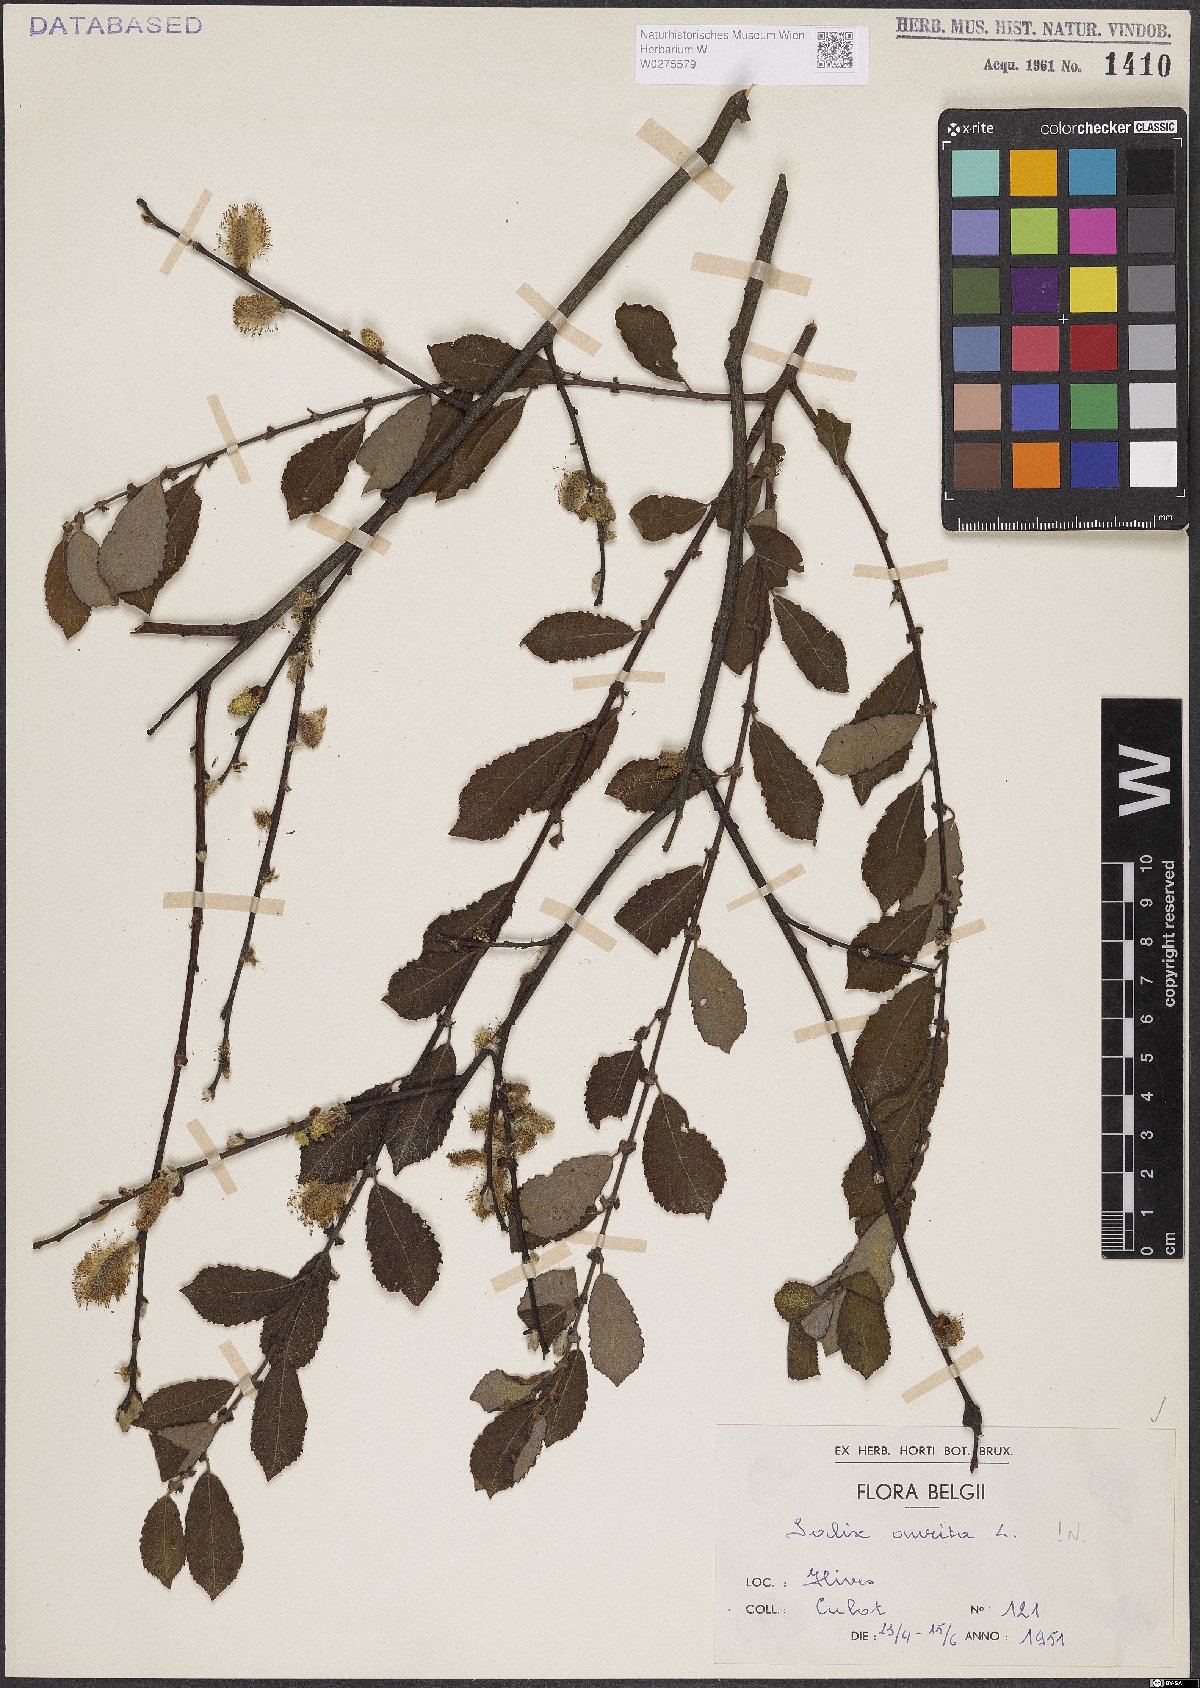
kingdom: Plantae
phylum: Tracheophyta
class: Magnoliopsida
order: Malpighiales
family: Salicaceae
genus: Salix
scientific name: Salix aurita
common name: Eared willow
